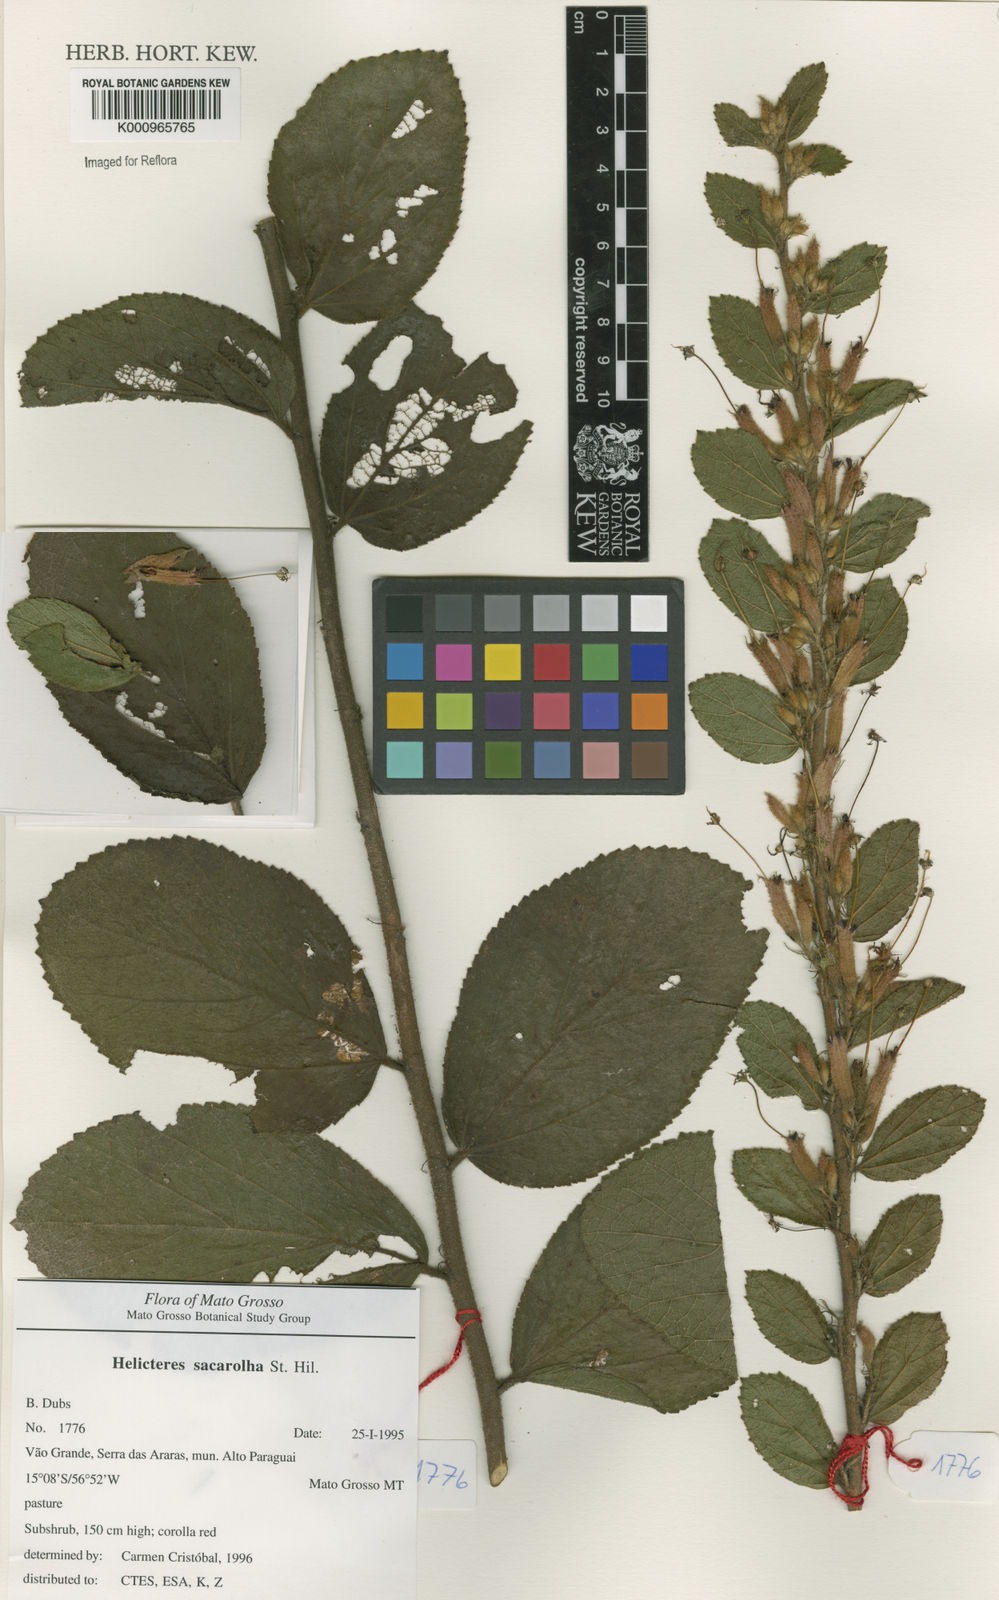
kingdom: Plantae
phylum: Tracheophyta
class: Magnoliopsida
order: Malvales
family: Malvaceae
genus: Helicteres
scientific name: Helicteres
